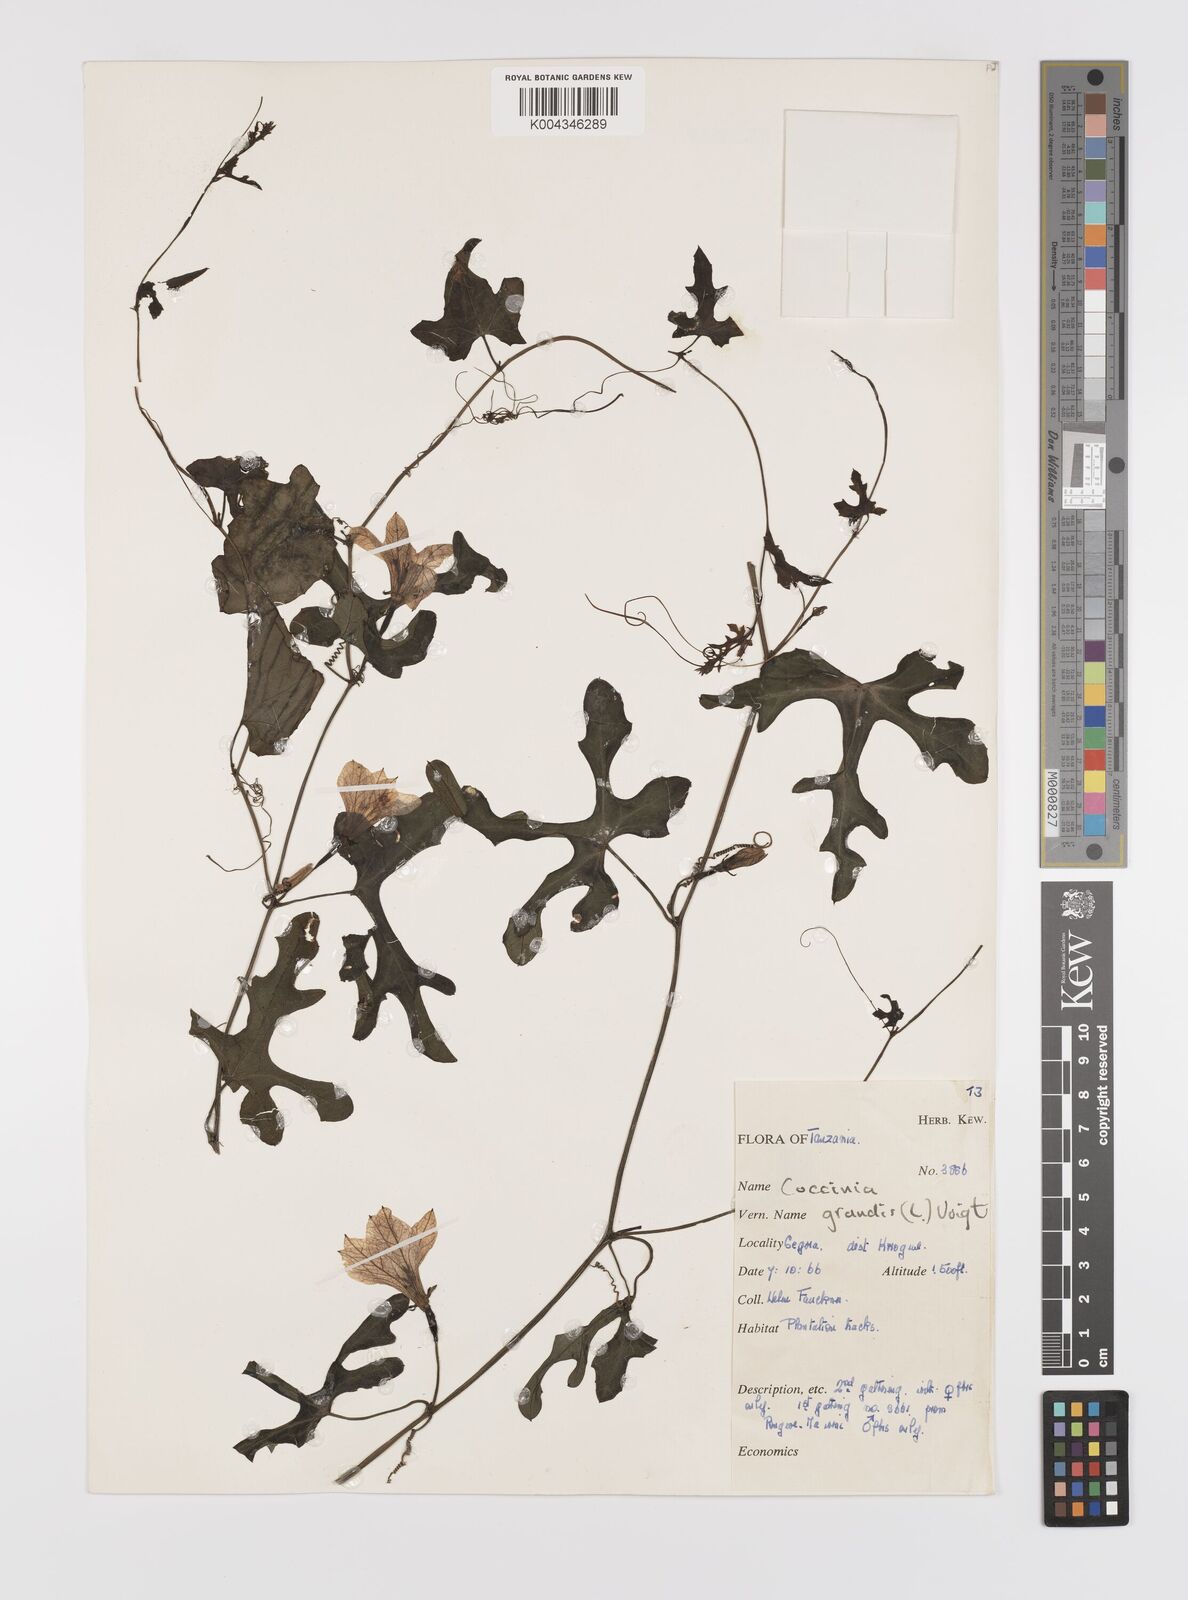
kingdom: Plantae
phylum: Tracheophyta
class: Magnoliopsida
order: Cucurbitales
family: Cucurbitaceae
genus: Coccinia
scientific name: Coccinia grandis
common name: Ivy gourd
